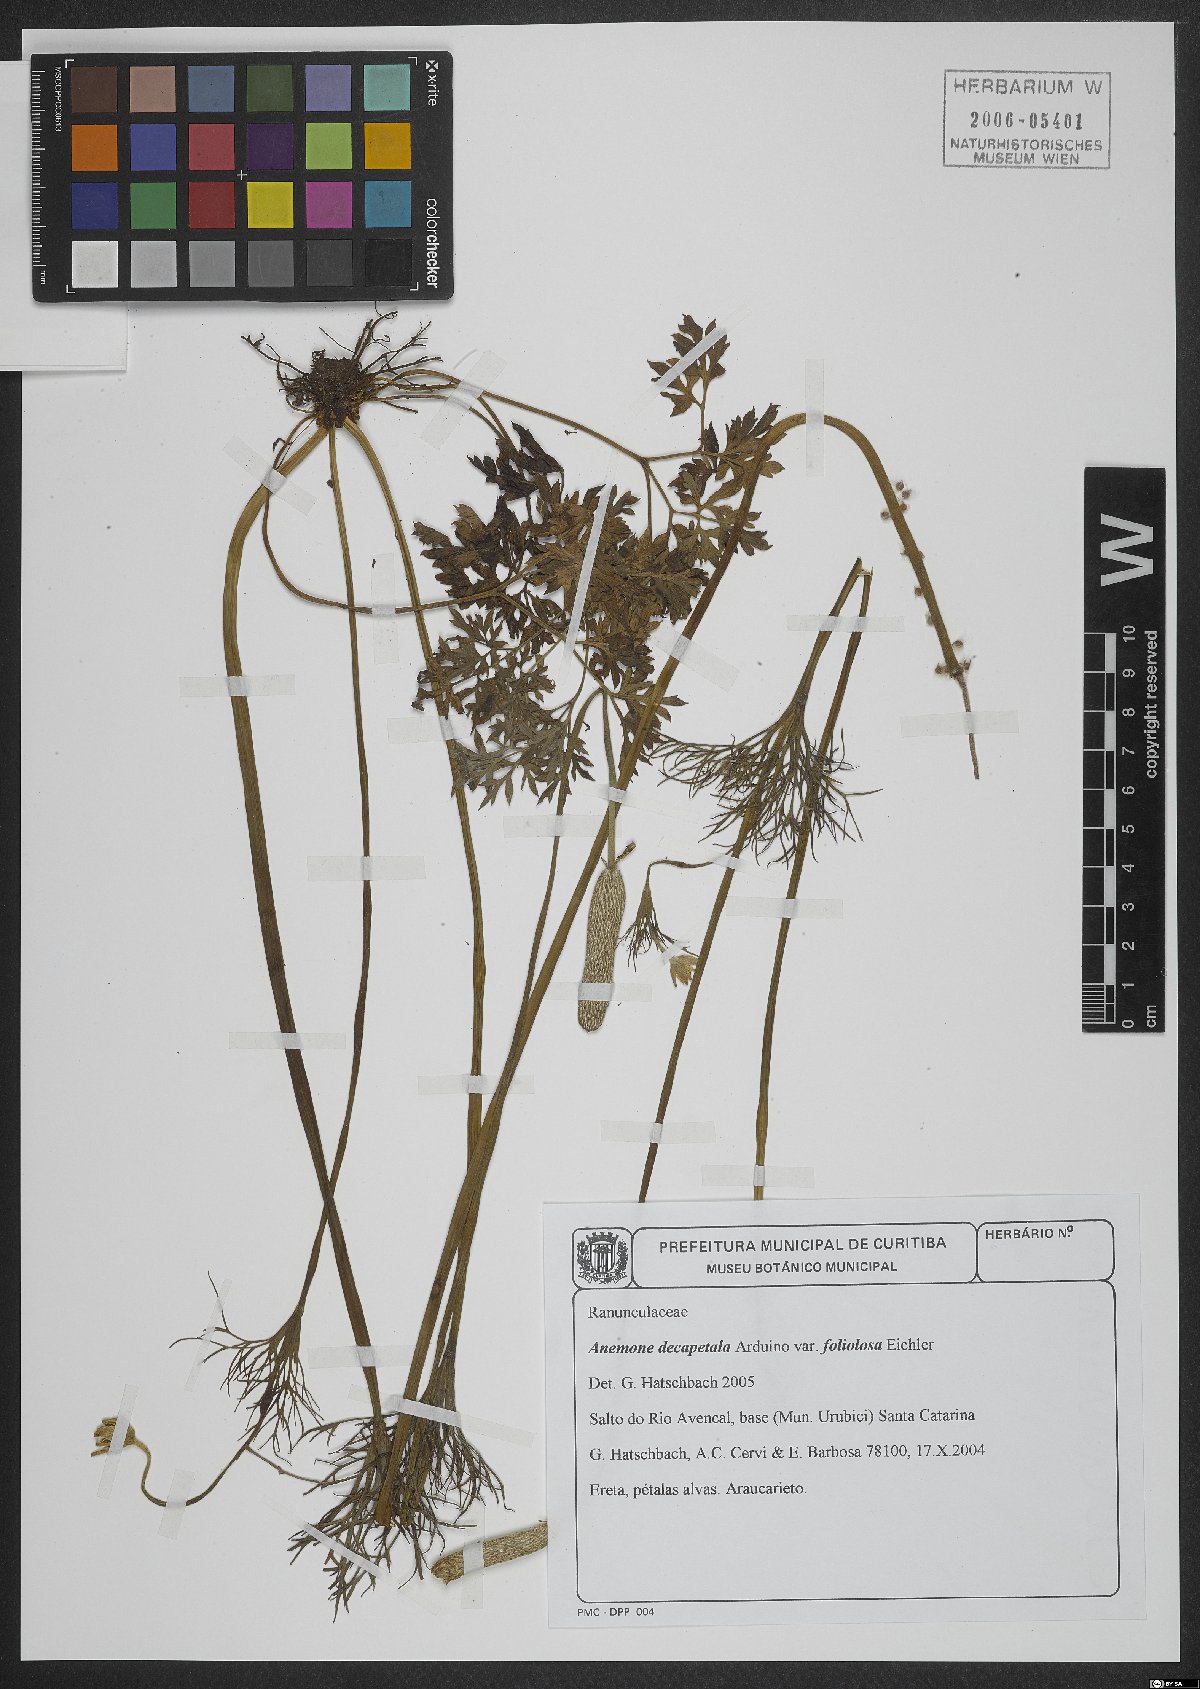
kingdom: Plantae
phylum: Tracheophyta
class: Magnoliopsida
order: Ranunculales
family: Ranunculaceae
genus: Anemone
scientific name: Anemone decapetala
